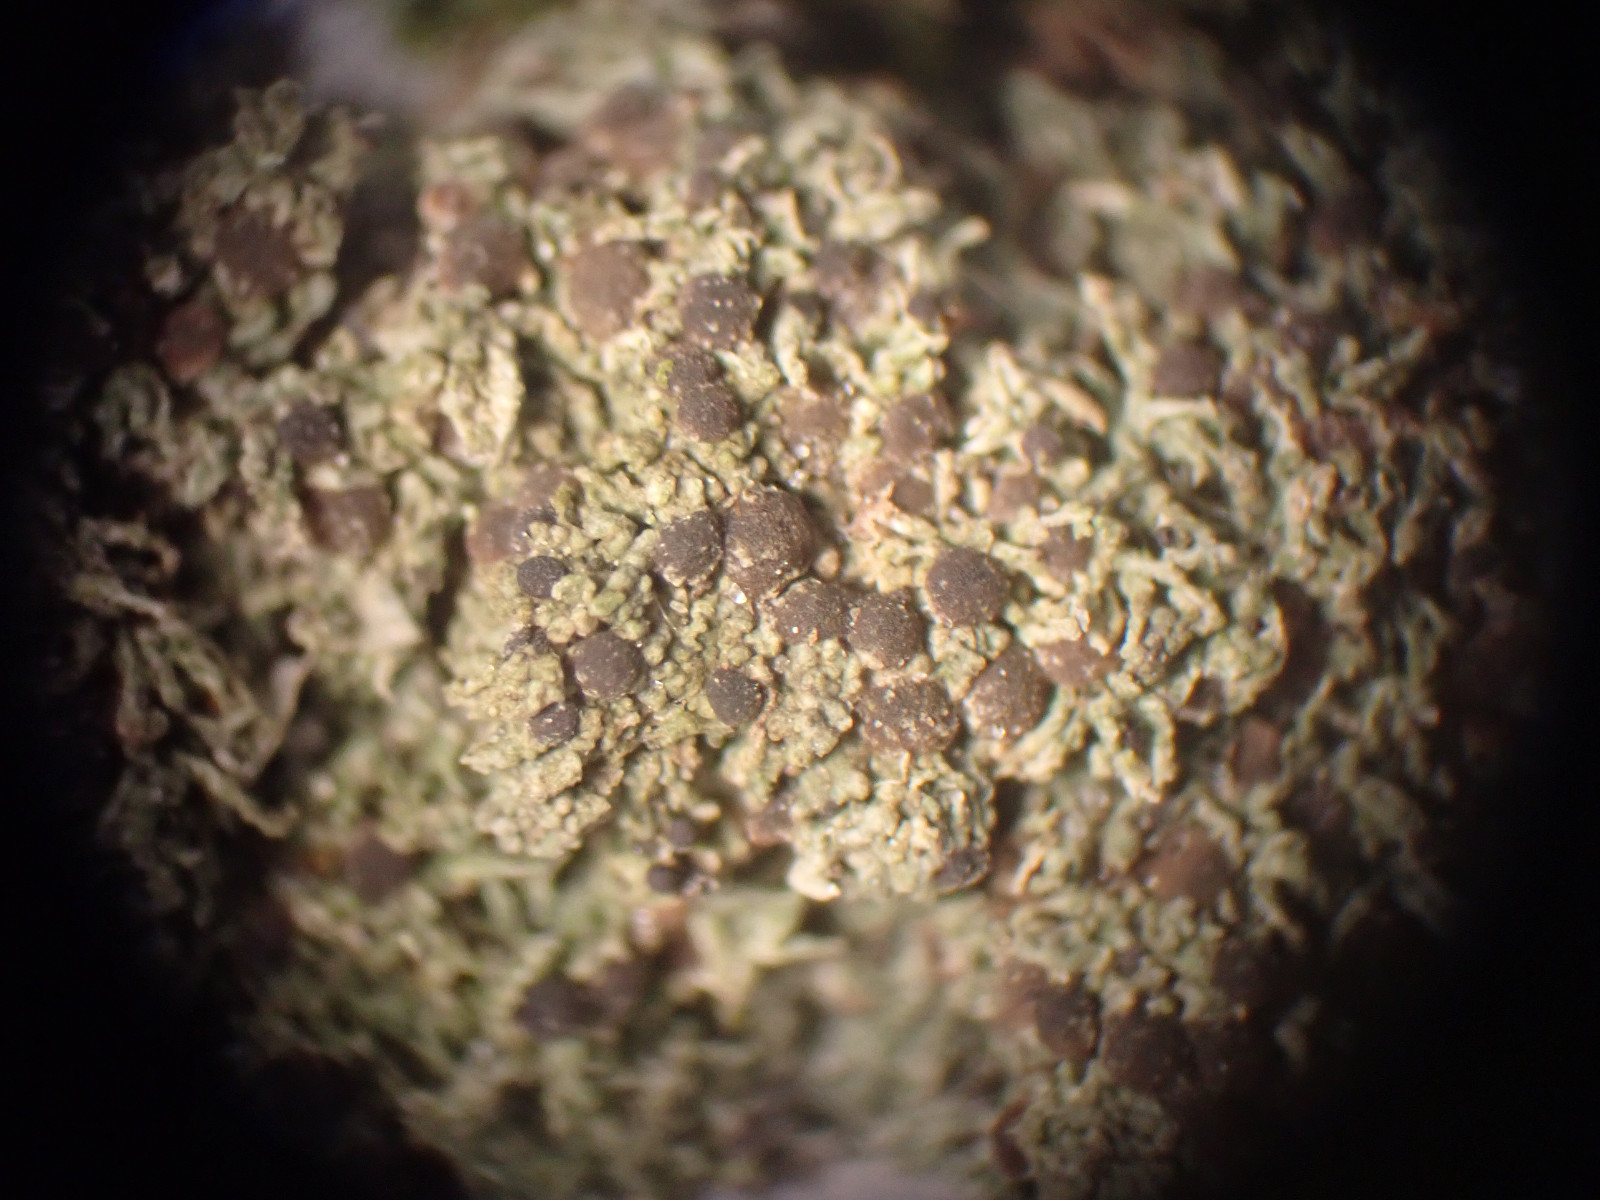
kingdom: Fungi
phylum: Ascomycota
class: Lecanoromycetes
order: Lecanorales
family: Ramalinaceae
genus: Bilimbia
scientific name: Bilimbia sabuletorum
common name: kalk-tensporelav
